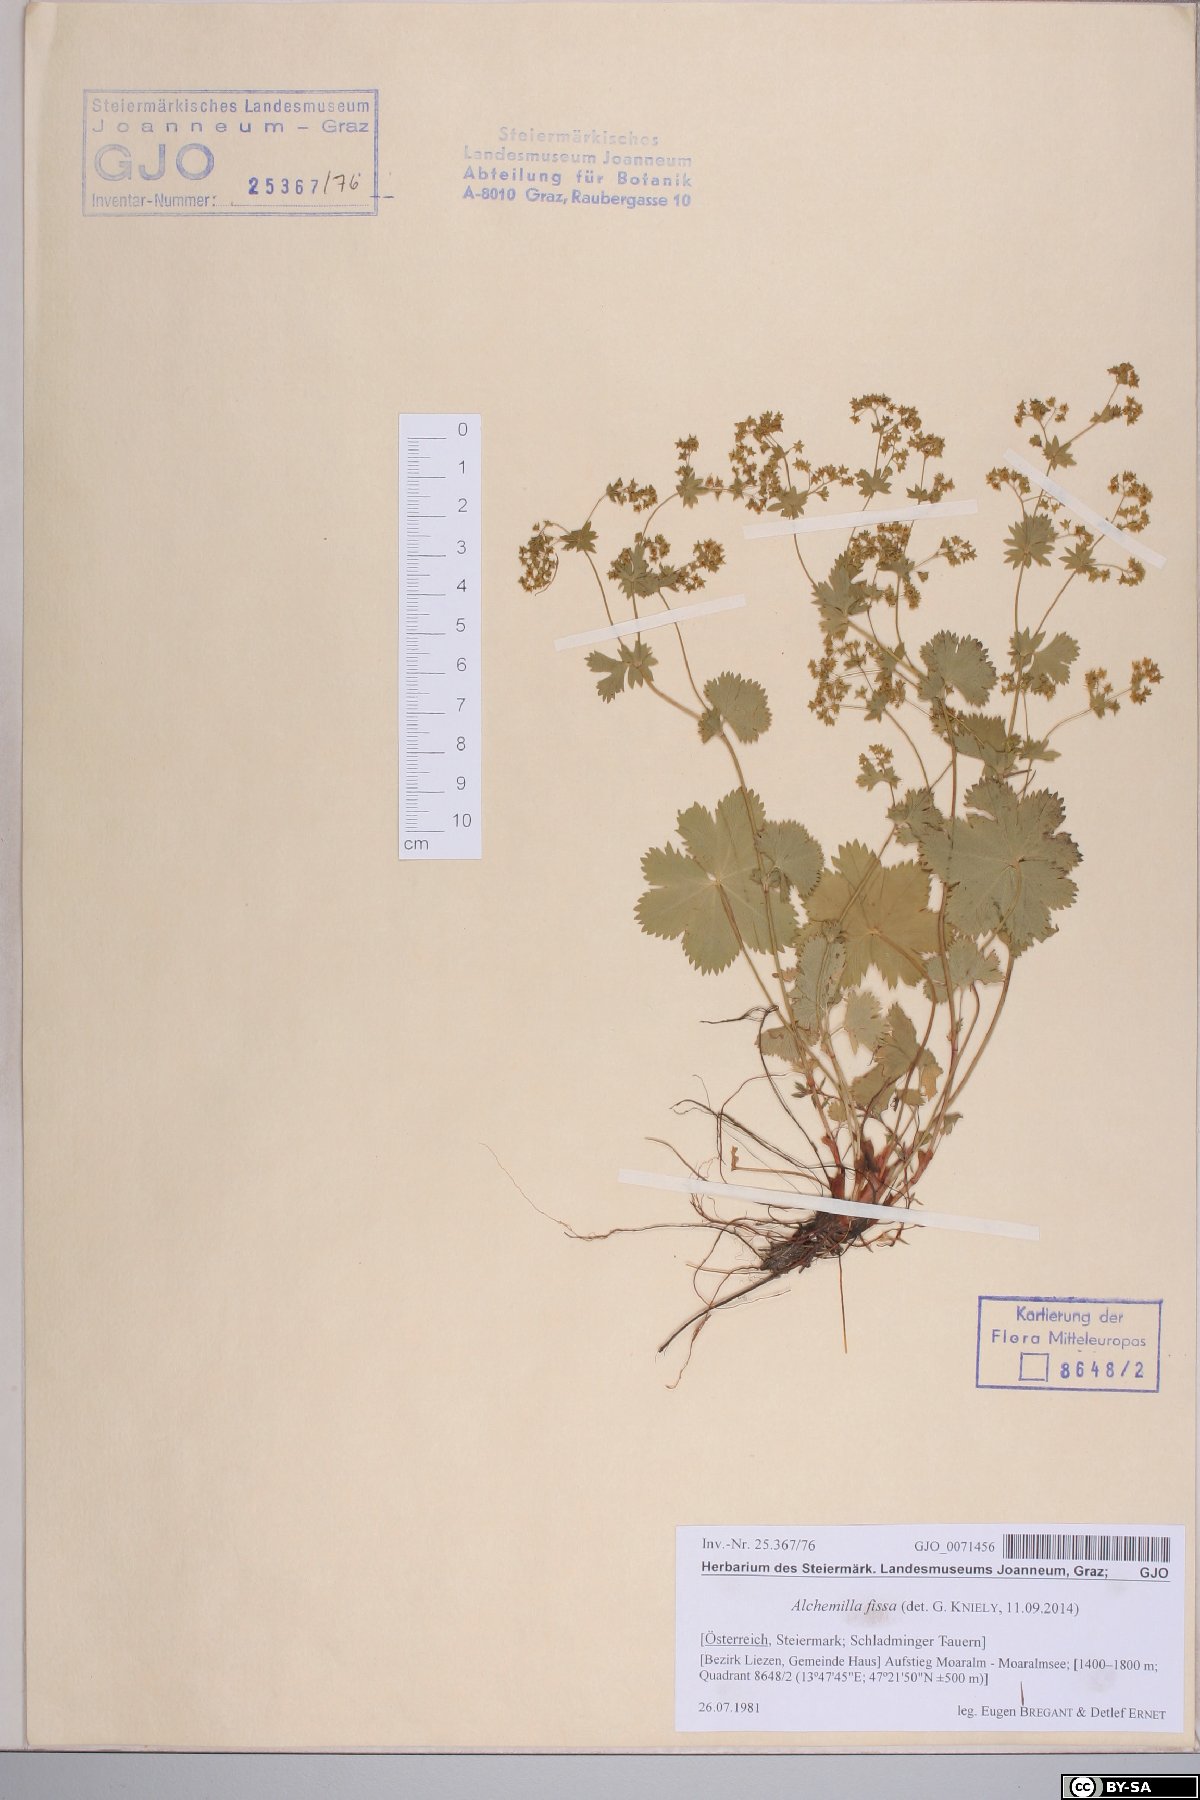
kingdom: Plantae
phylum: Tracheophyta
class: Magnoliopsida
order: Rosales
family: Rosaceae
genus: Alchemilla
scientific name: Alchemilla fissa
